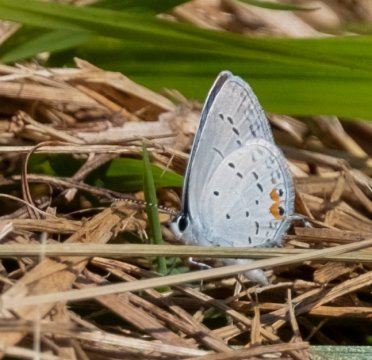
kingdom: Animalia
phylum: Arthropoda
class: Insecta
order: Lepidoptera
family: Lycaenidae
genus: Elkalyce
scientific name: Elkalyce comyntas
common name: Eastern Tailed-Blue
